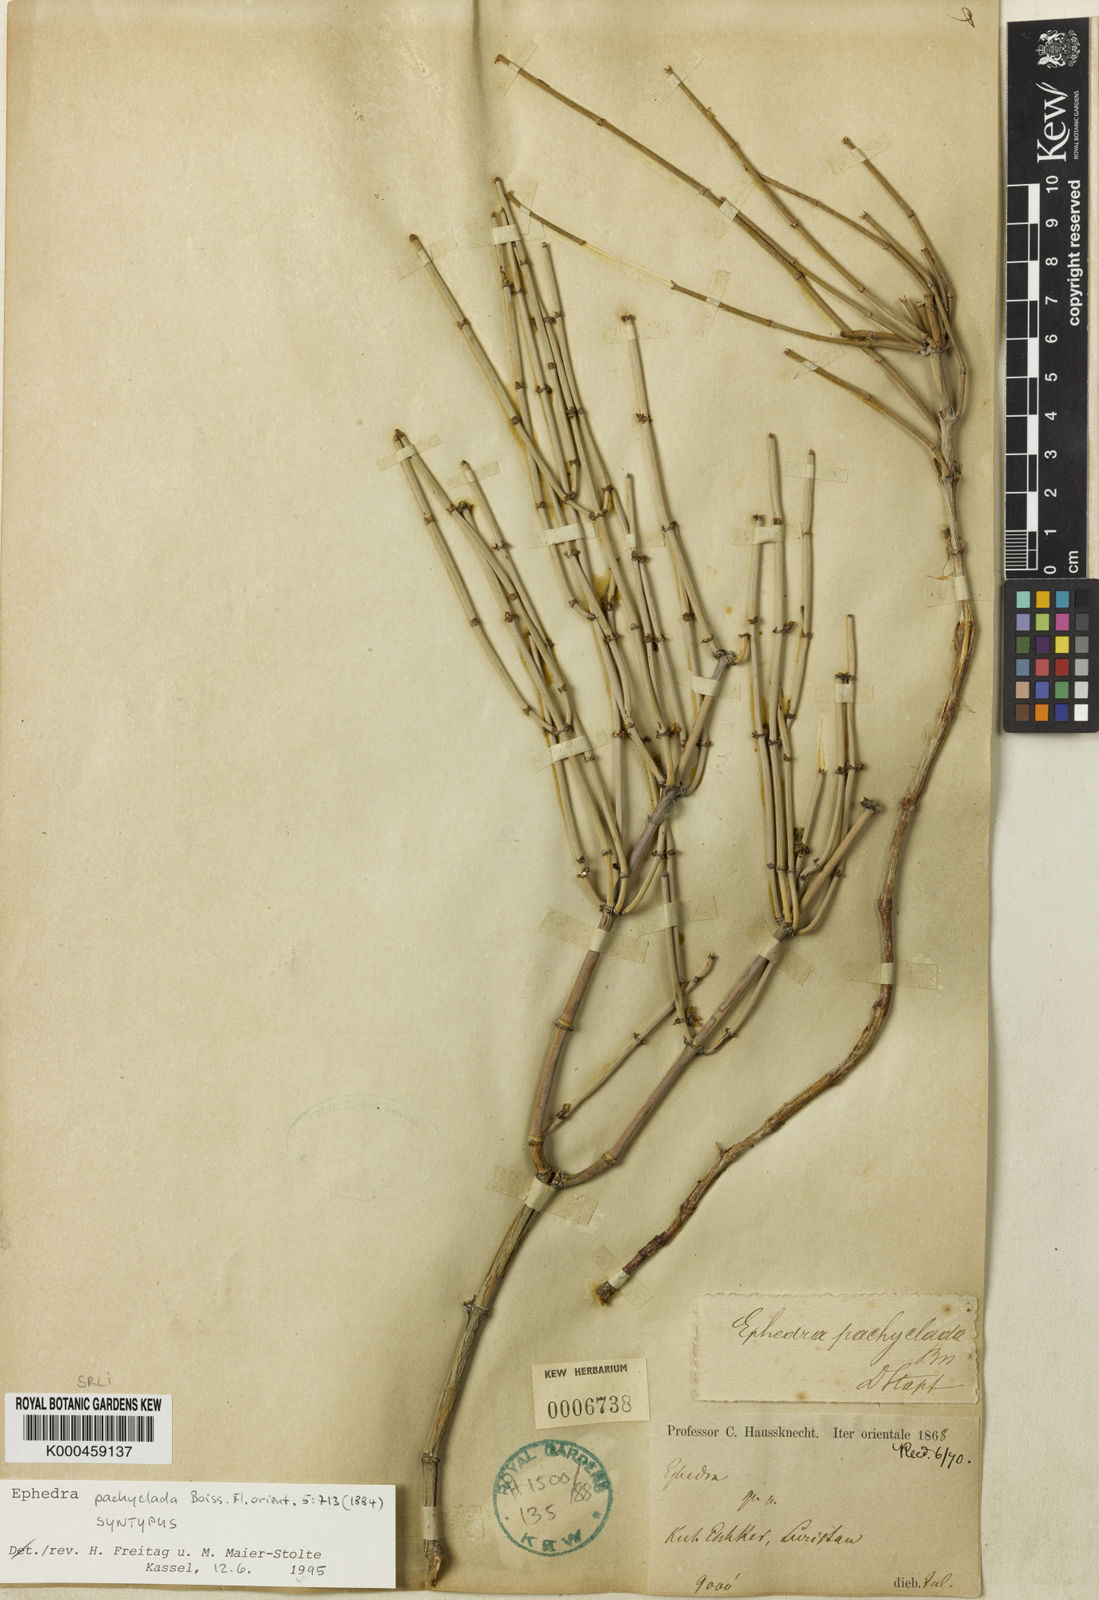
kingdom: Plantae
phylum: Tracheophyta
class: Gnetopsida
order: Ephedrales
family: Ephedraceae
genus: Ephedra
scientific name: Ephedra pachyclada
